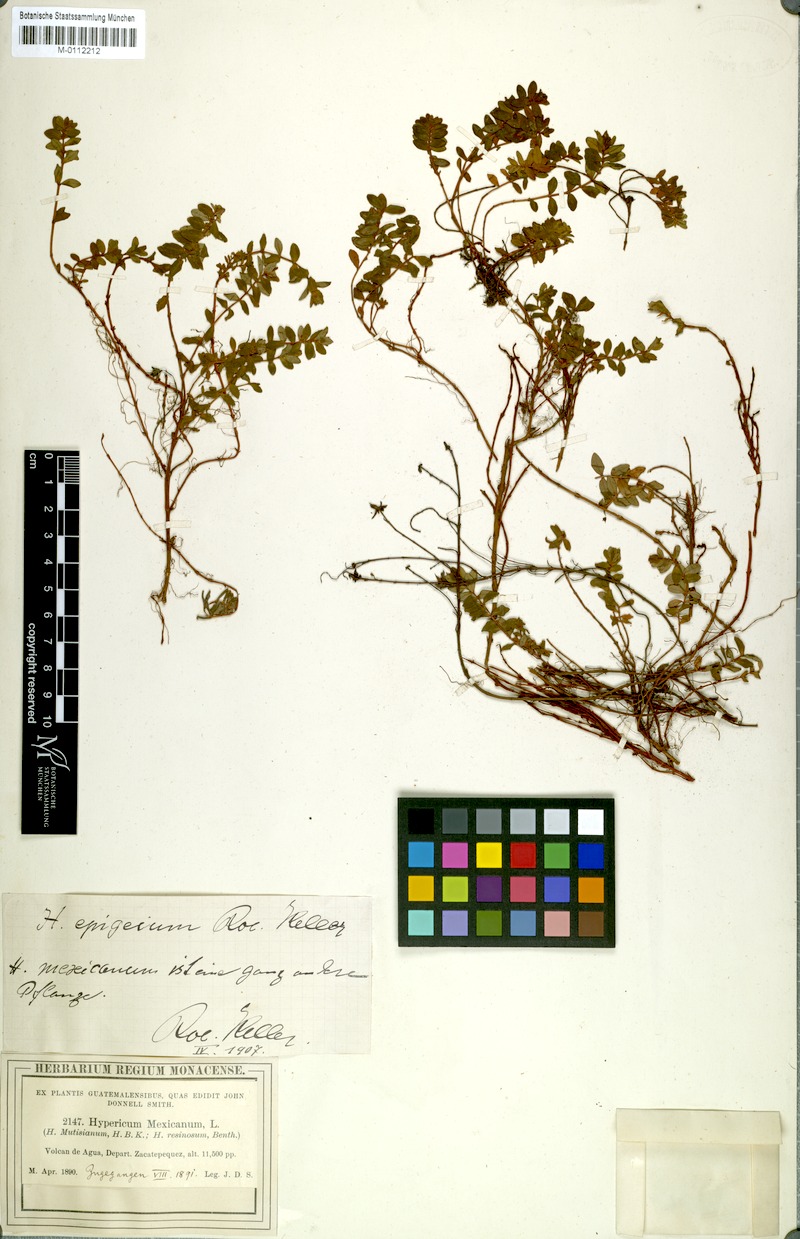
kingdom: Plantae
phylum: Tracheophyta
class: Magnoliopsida
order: Malpighiales
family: Hypericaceae
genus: Hypericum
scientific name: Hypericum epigeium
